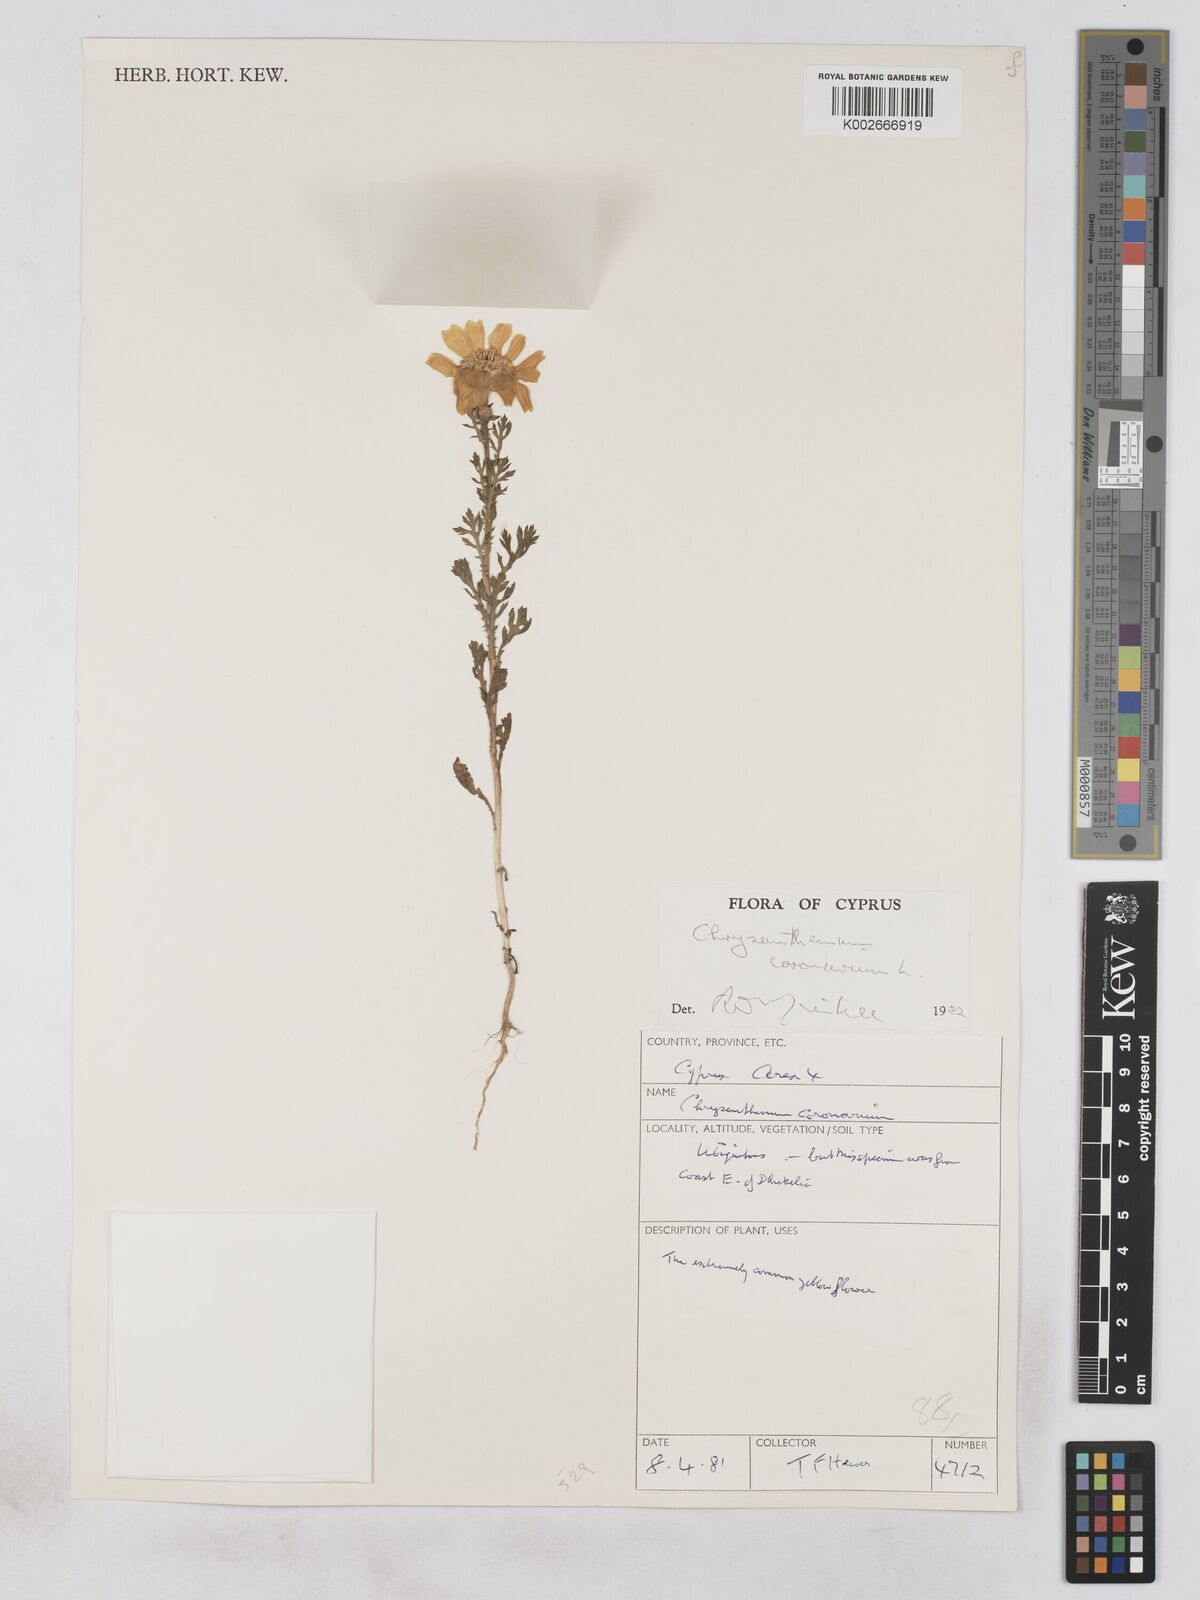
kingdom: Plantae
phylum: Tracheophyta
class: Magnoliopsida
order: Asterales
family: Asteraceae
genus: Glebionis
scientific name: Glebionis coronaria
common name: Crowndaisy
